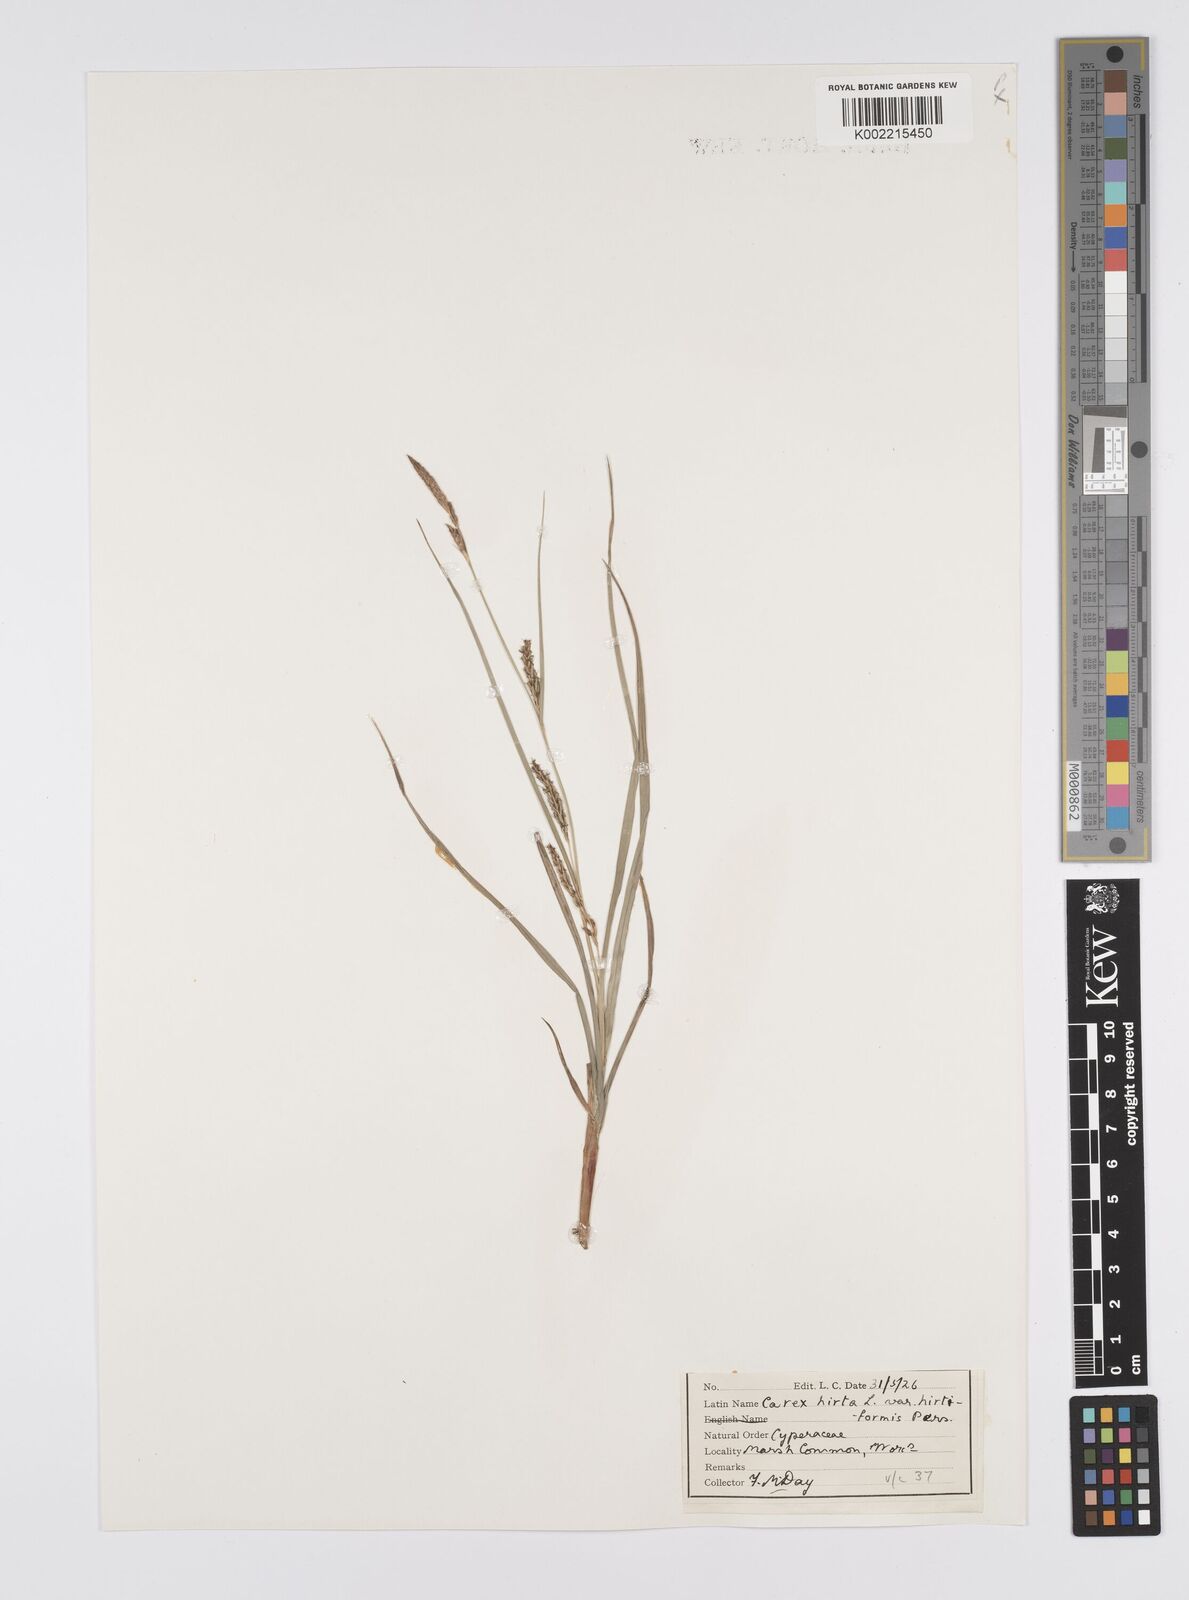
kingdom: Plantae
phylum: Tracheophyta
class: Liliopsida
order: Poales
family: Cyperaceae
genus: Carex
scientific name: Carex hirta
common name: Hairy sedge
